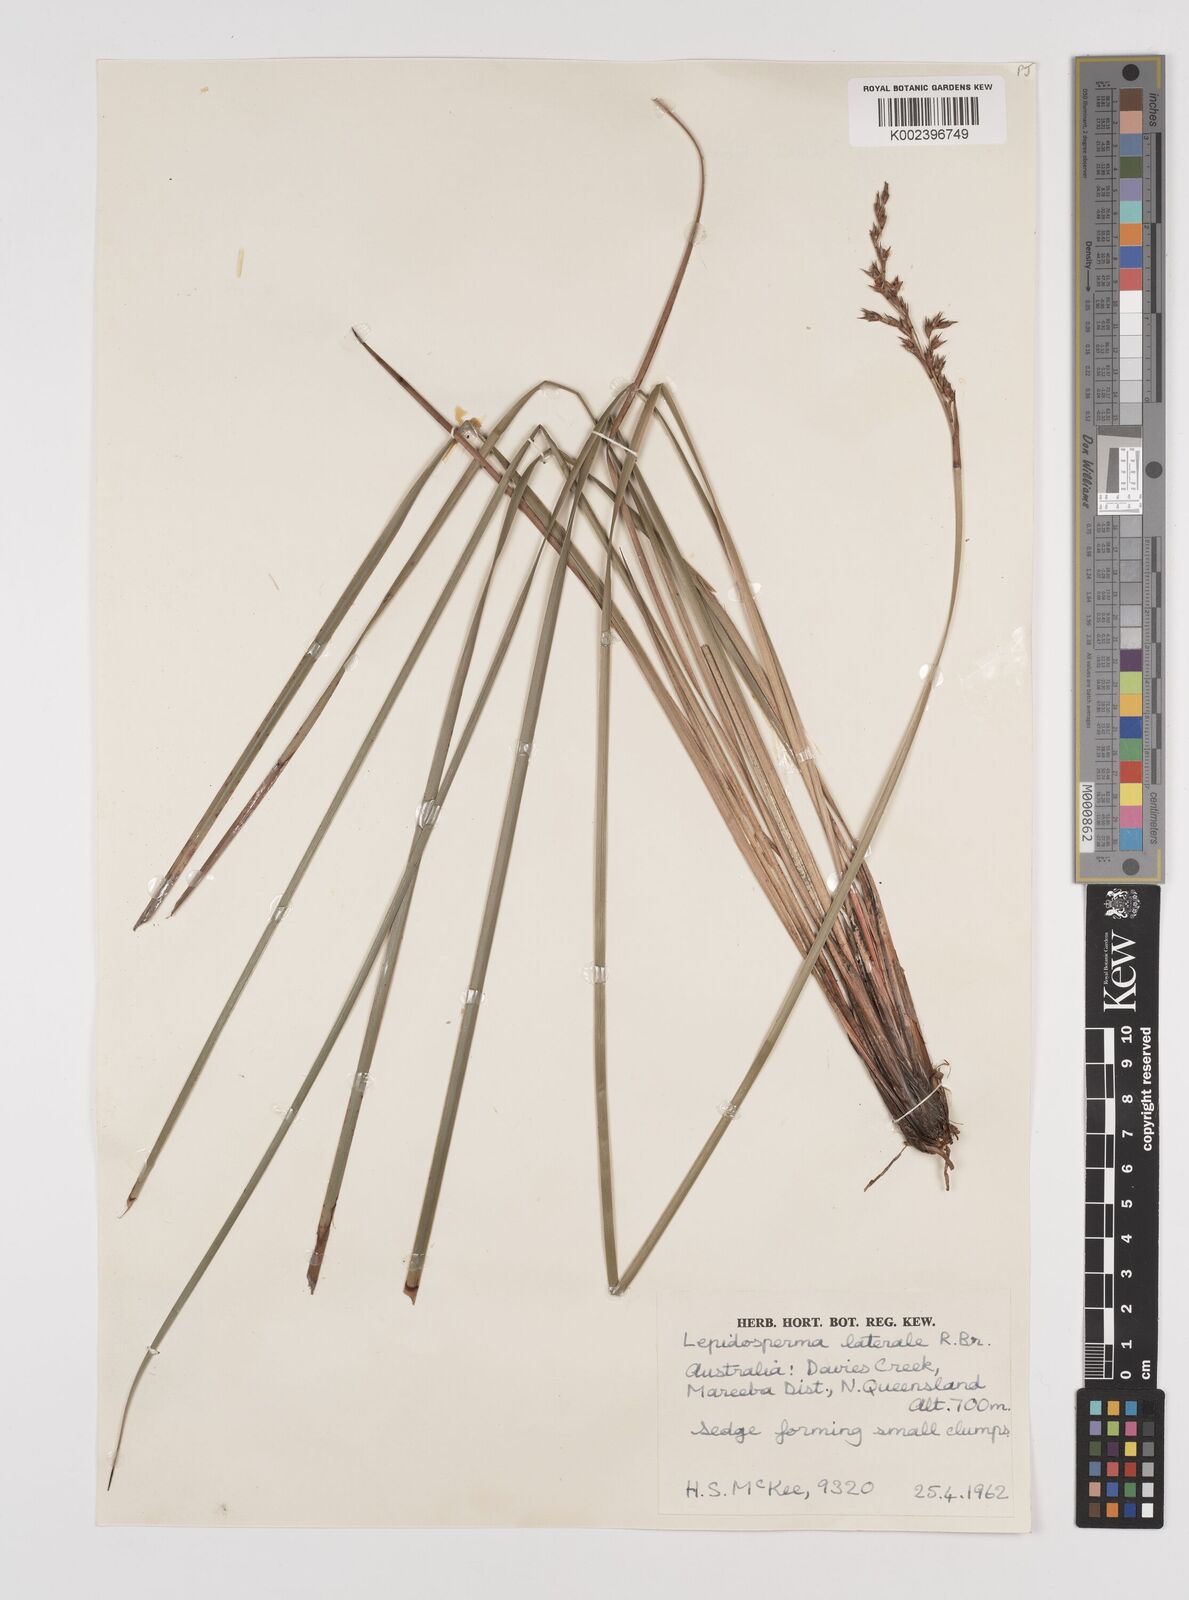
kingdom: Plantae
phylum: Tracheophyta
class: Liliopsida
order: Poales
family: Cyperaceae
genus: Lepidosperma
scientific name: Lepidosperma laterale
